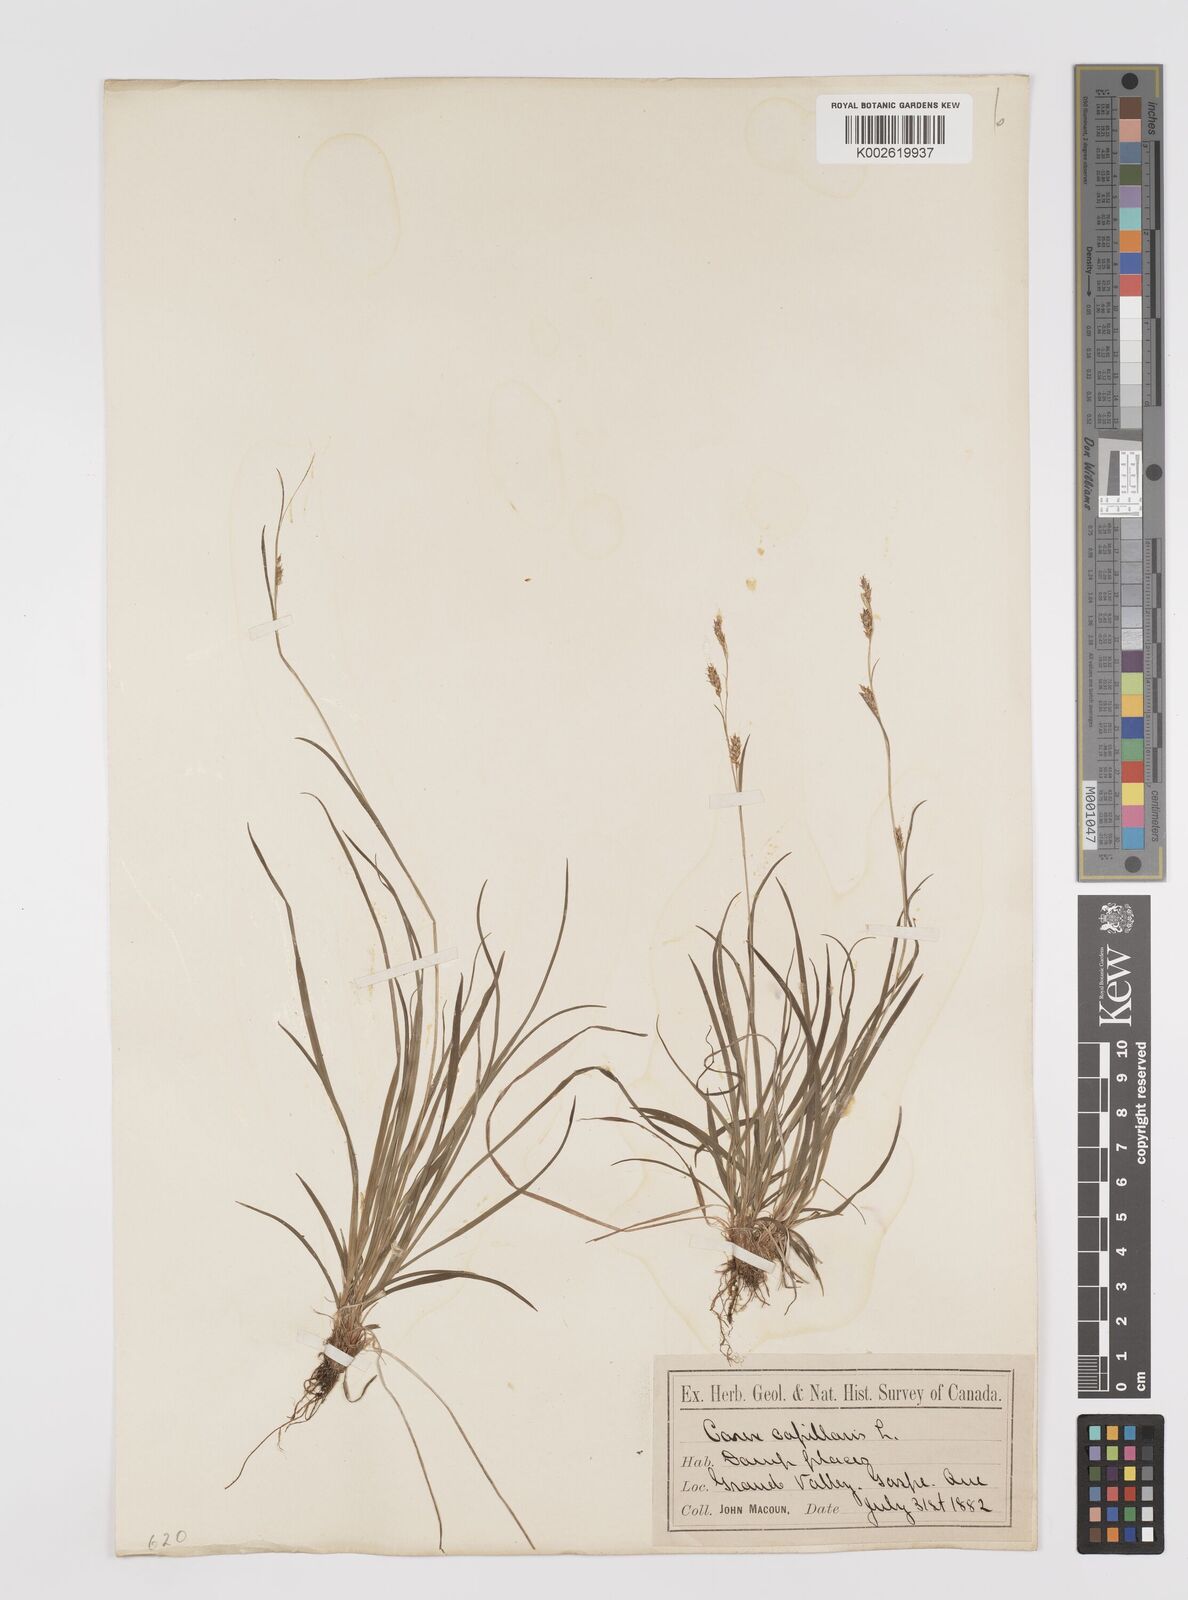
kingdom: Plantae
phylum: Tracheophyta
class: Liliopsida
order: Poales
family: Cyperaceae
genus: Carex
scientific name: Carex capillaris
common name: Hair sedge
